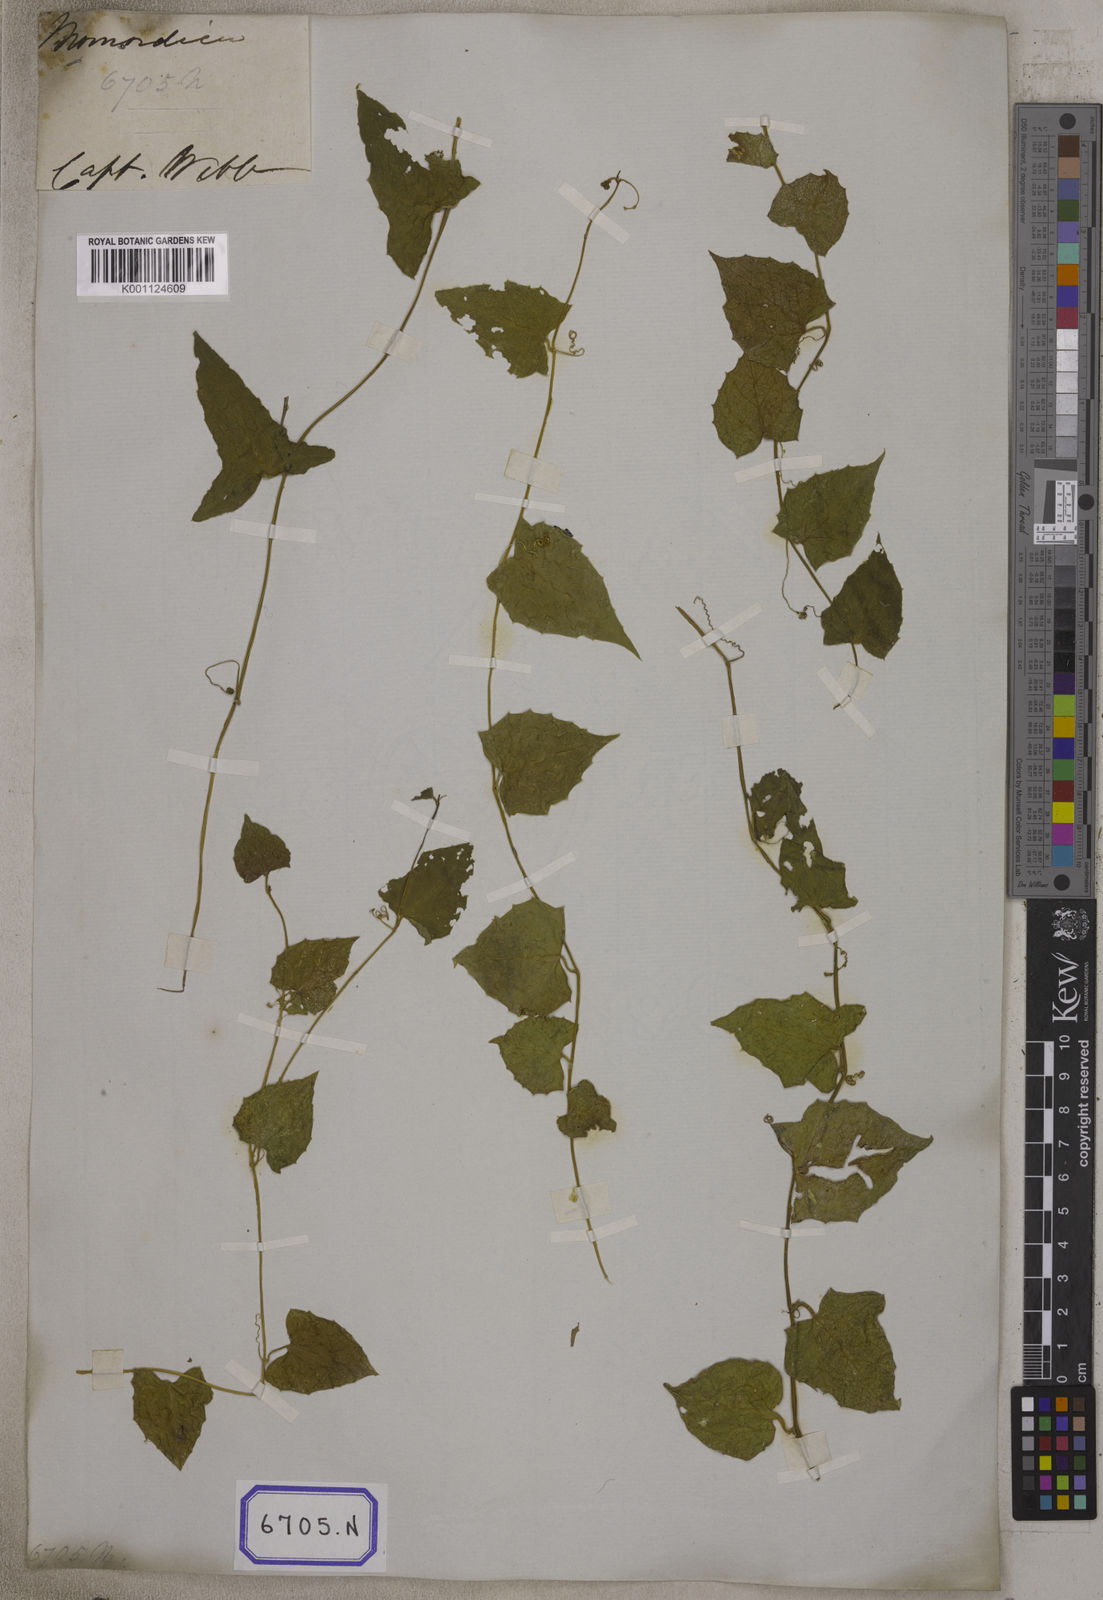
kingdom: Plantae
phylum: Tracheophyta
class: Magnoliopsida
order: Cucurbitales
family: Cucurbitaceae
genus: Bryonia
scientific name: Bryonia
